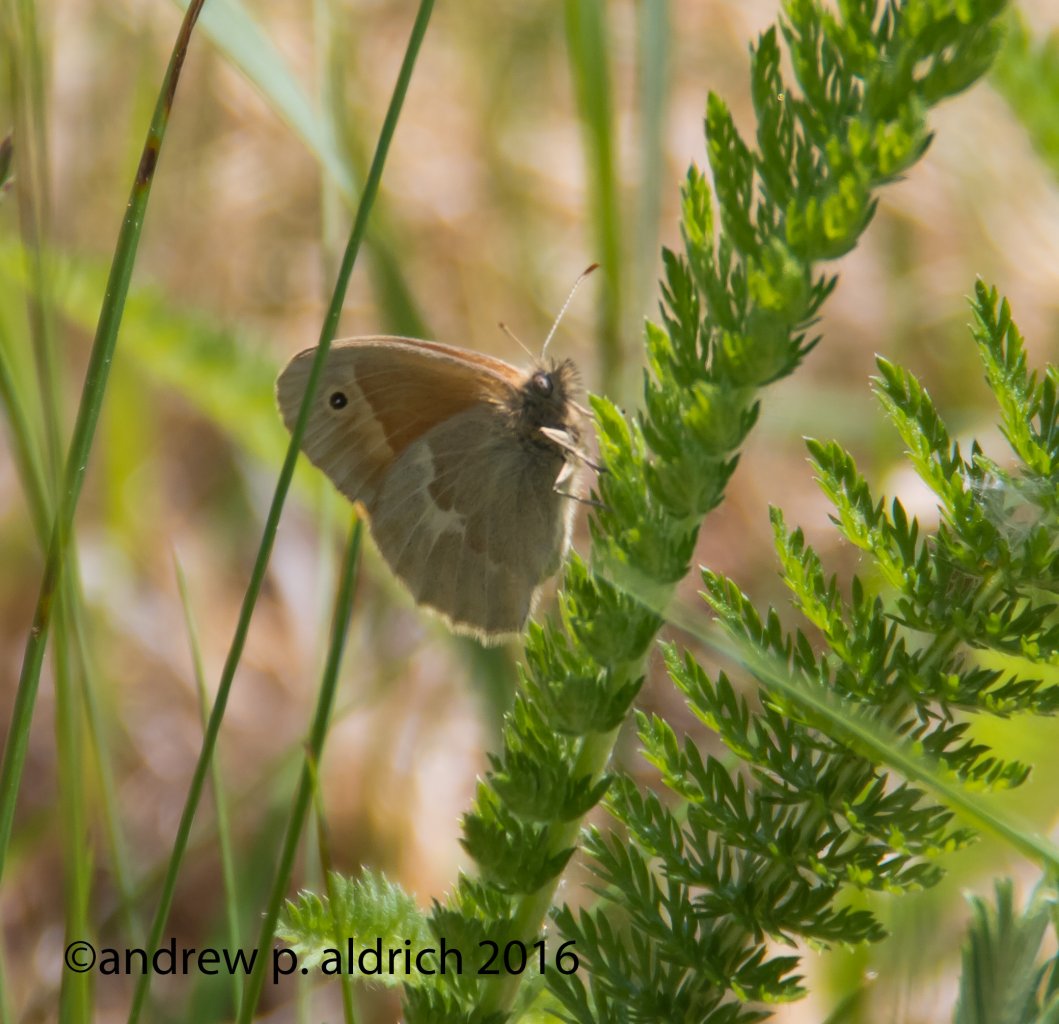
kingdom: Animalia
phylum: Arthropoda
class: Insecta
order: Lepidoptera
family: Nymphalidae
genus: Coenonympha
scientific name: Coenonympha tullia
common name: Large Heath
